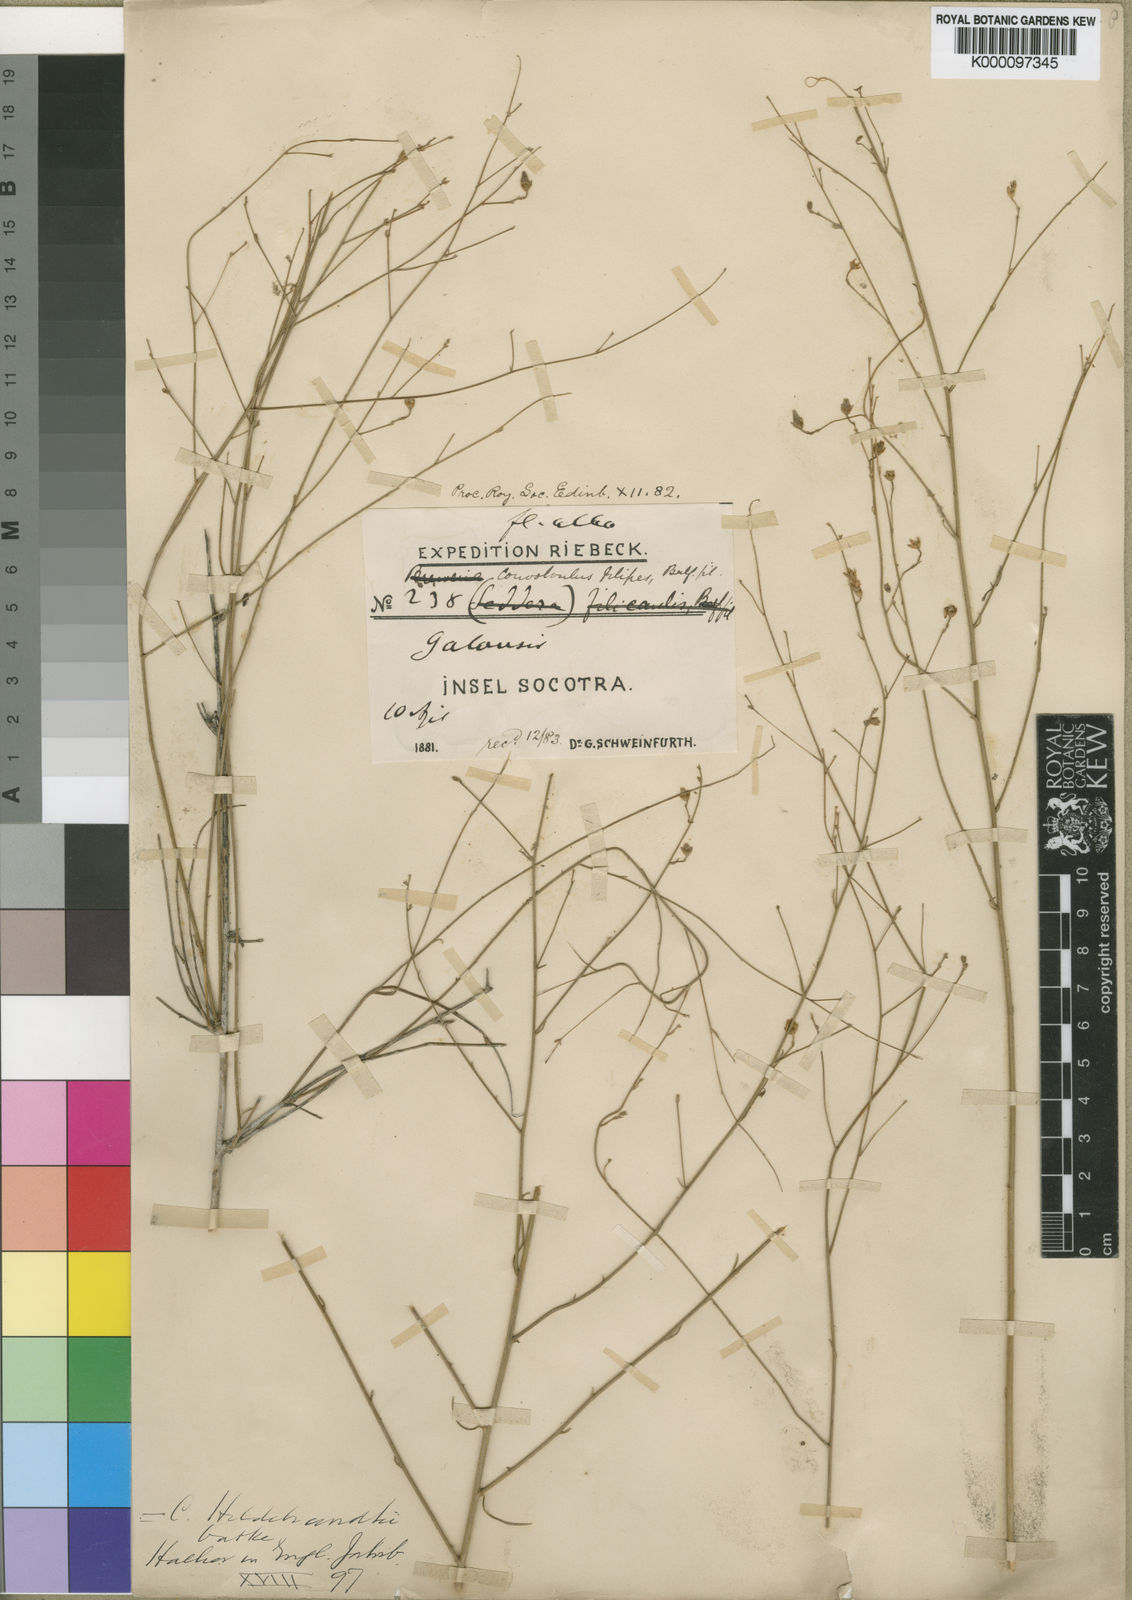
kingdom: Plantae
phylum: Tracheophyta
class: Magnoliopsida
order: Solanales
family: Convolvulaceae
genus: Convolvulus
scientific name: Convolvulus hildebrandtii
